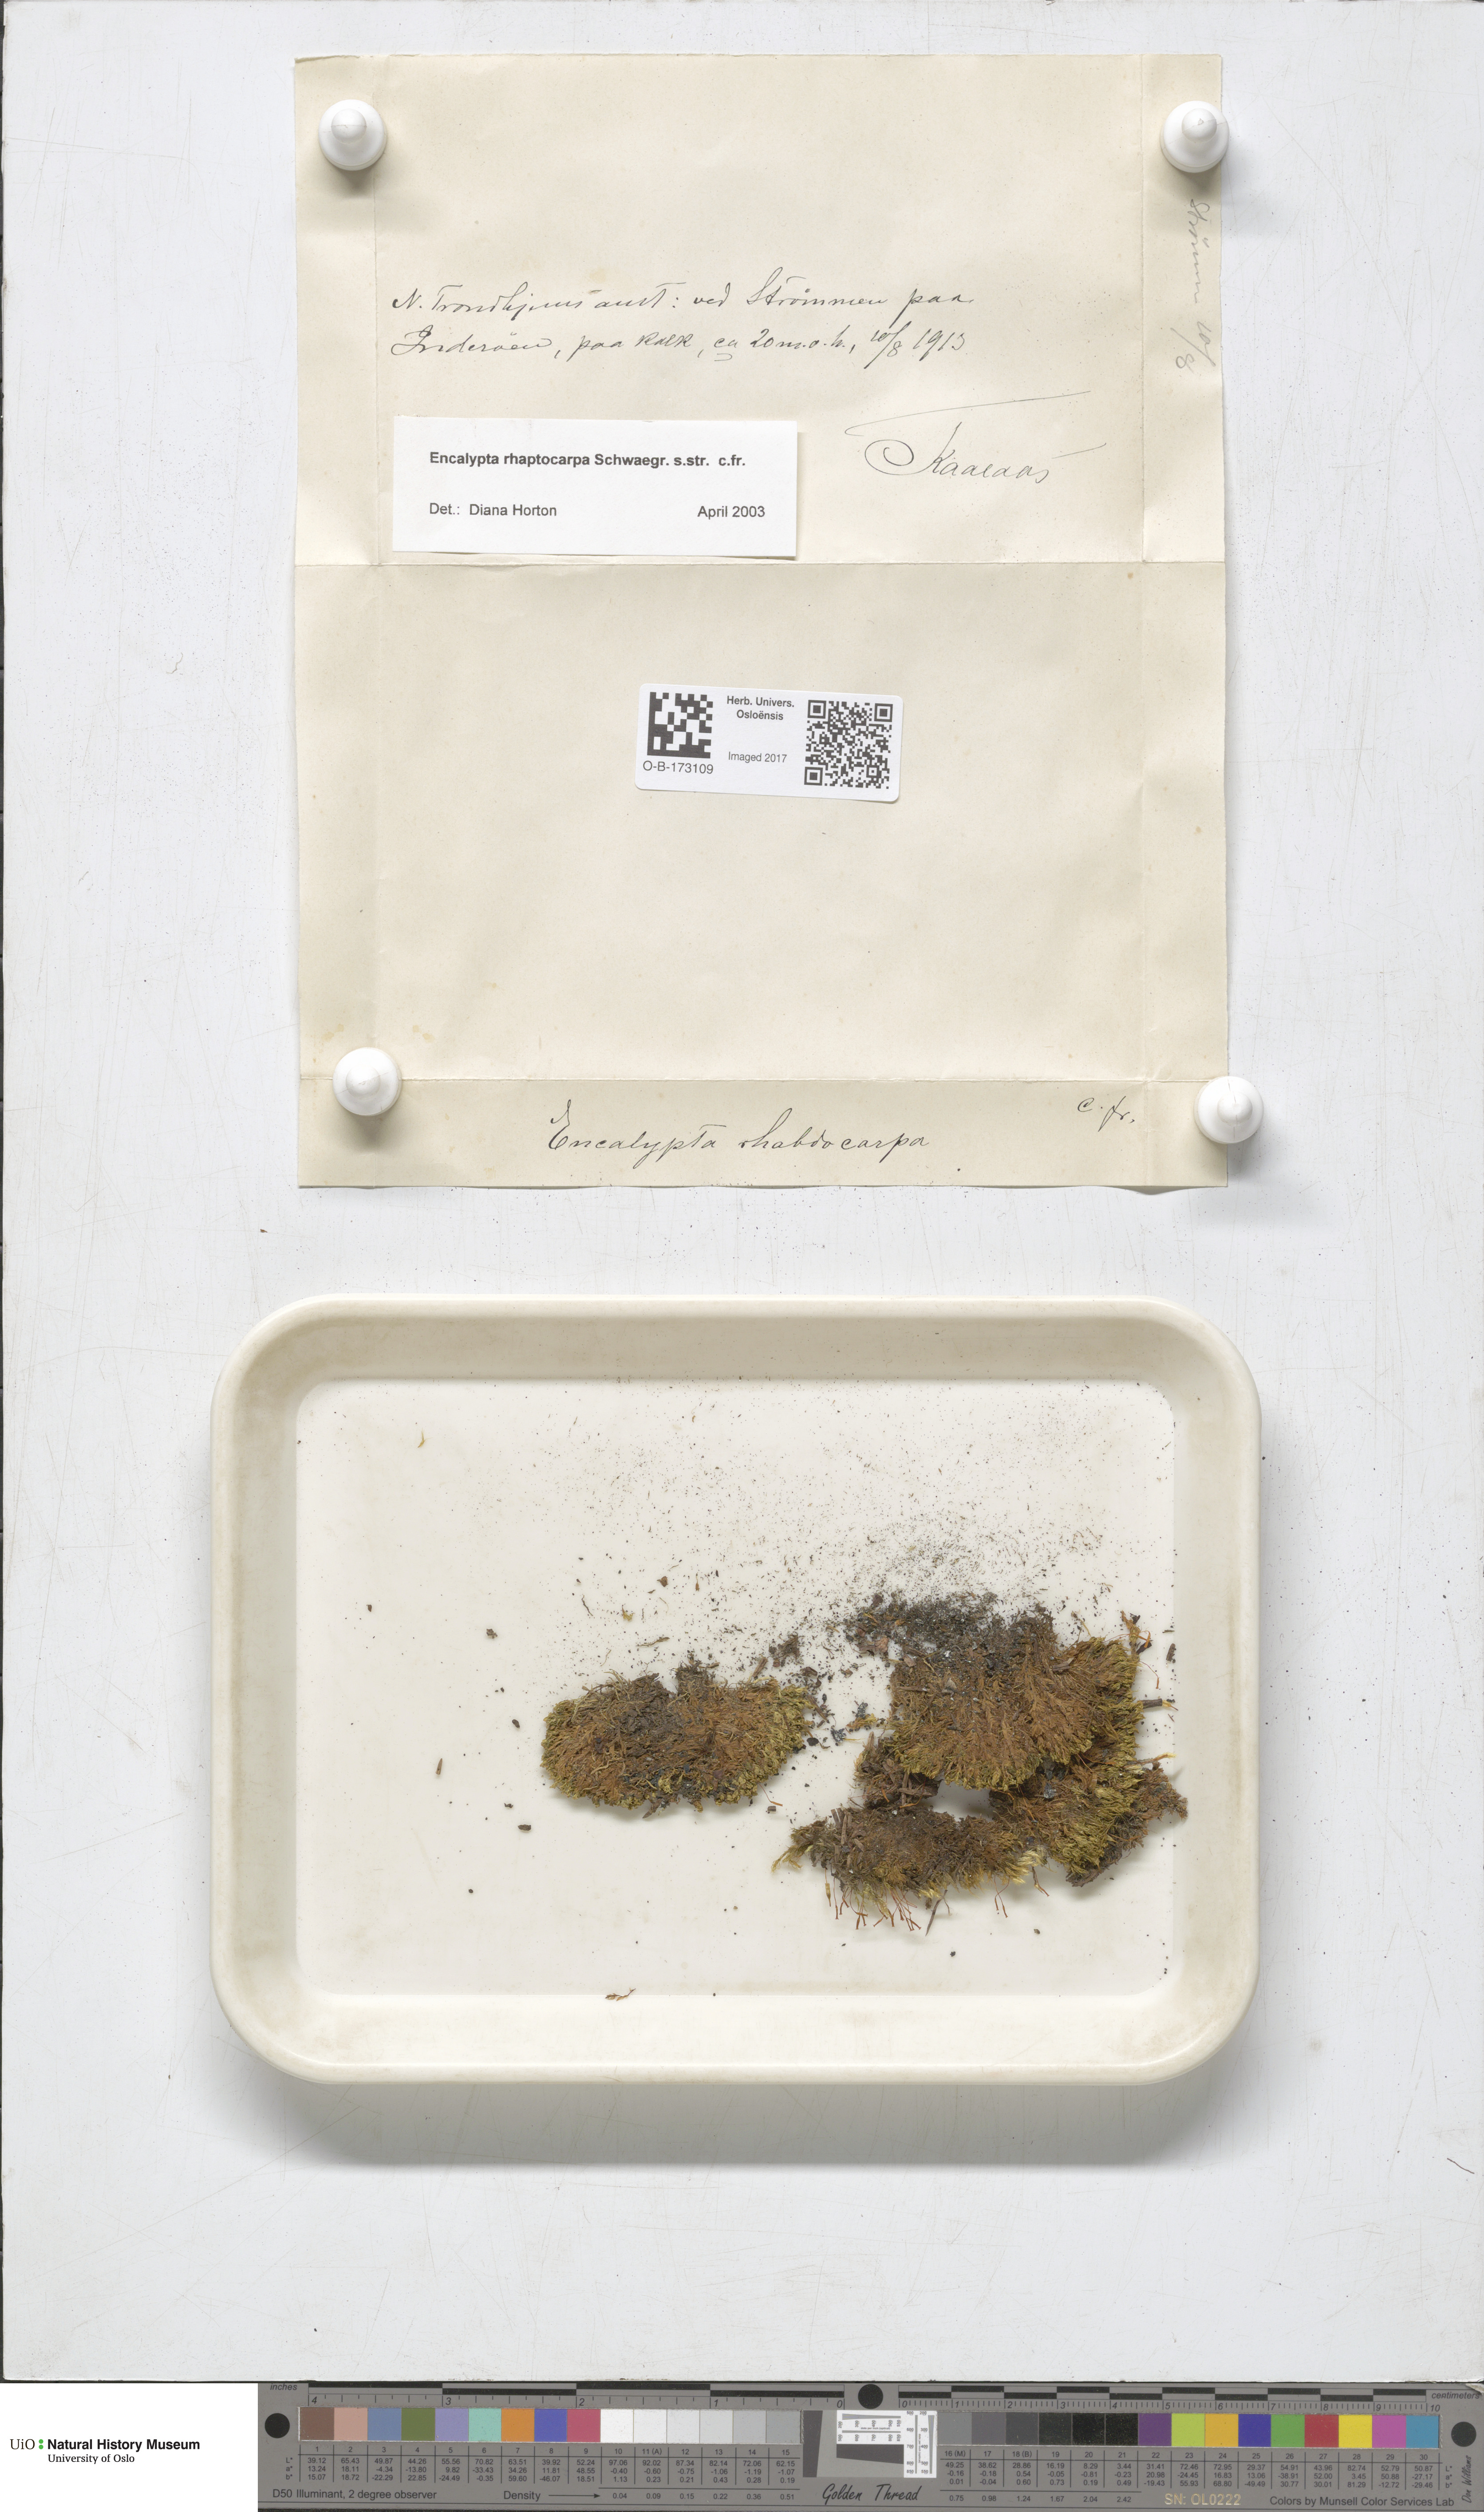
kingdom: Plantae
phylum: Bryophyta
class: Bryopsida
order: Encalyptales
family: Encalyptaceae
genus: Encalypta
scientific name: Encalypta rhaptocarpa
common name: Ribbed extinguisher moss
